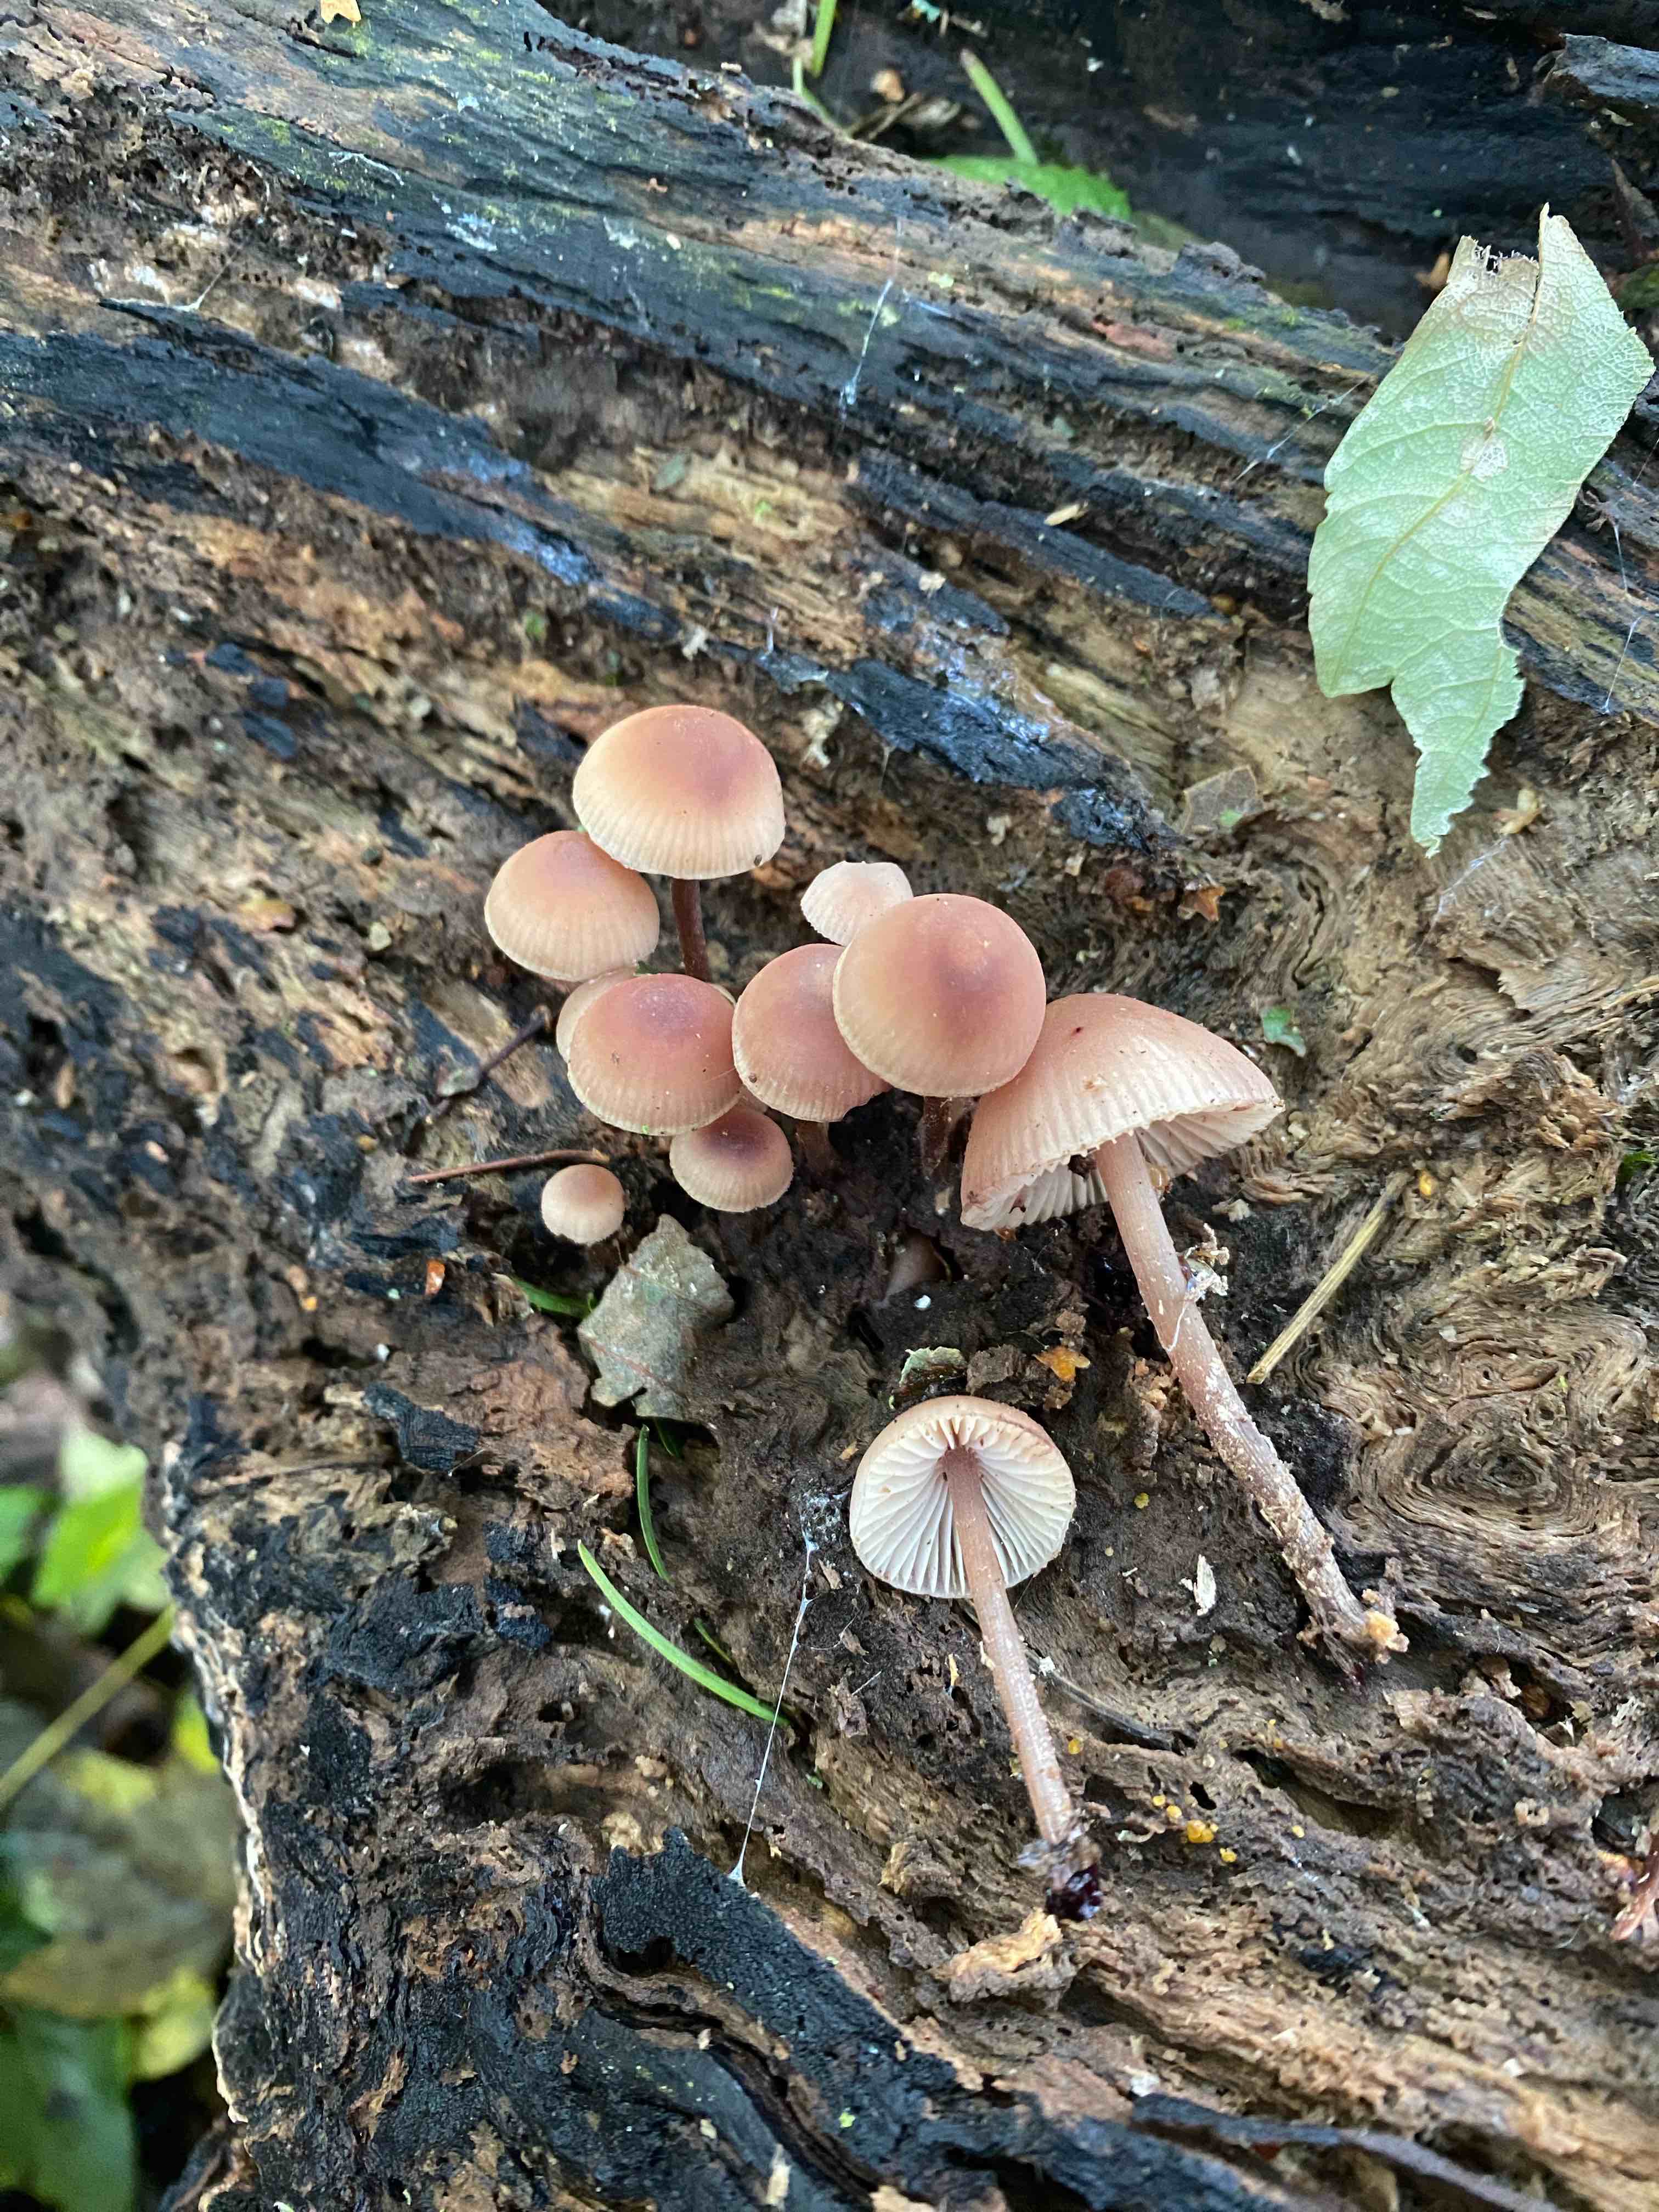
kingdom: Fungi
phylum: Basidiomycota
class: Agaricomycetes
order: Agaricales
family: Mycenaceae
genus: Mycena
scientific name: Mycena haematopus
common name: blødende huesvamp
